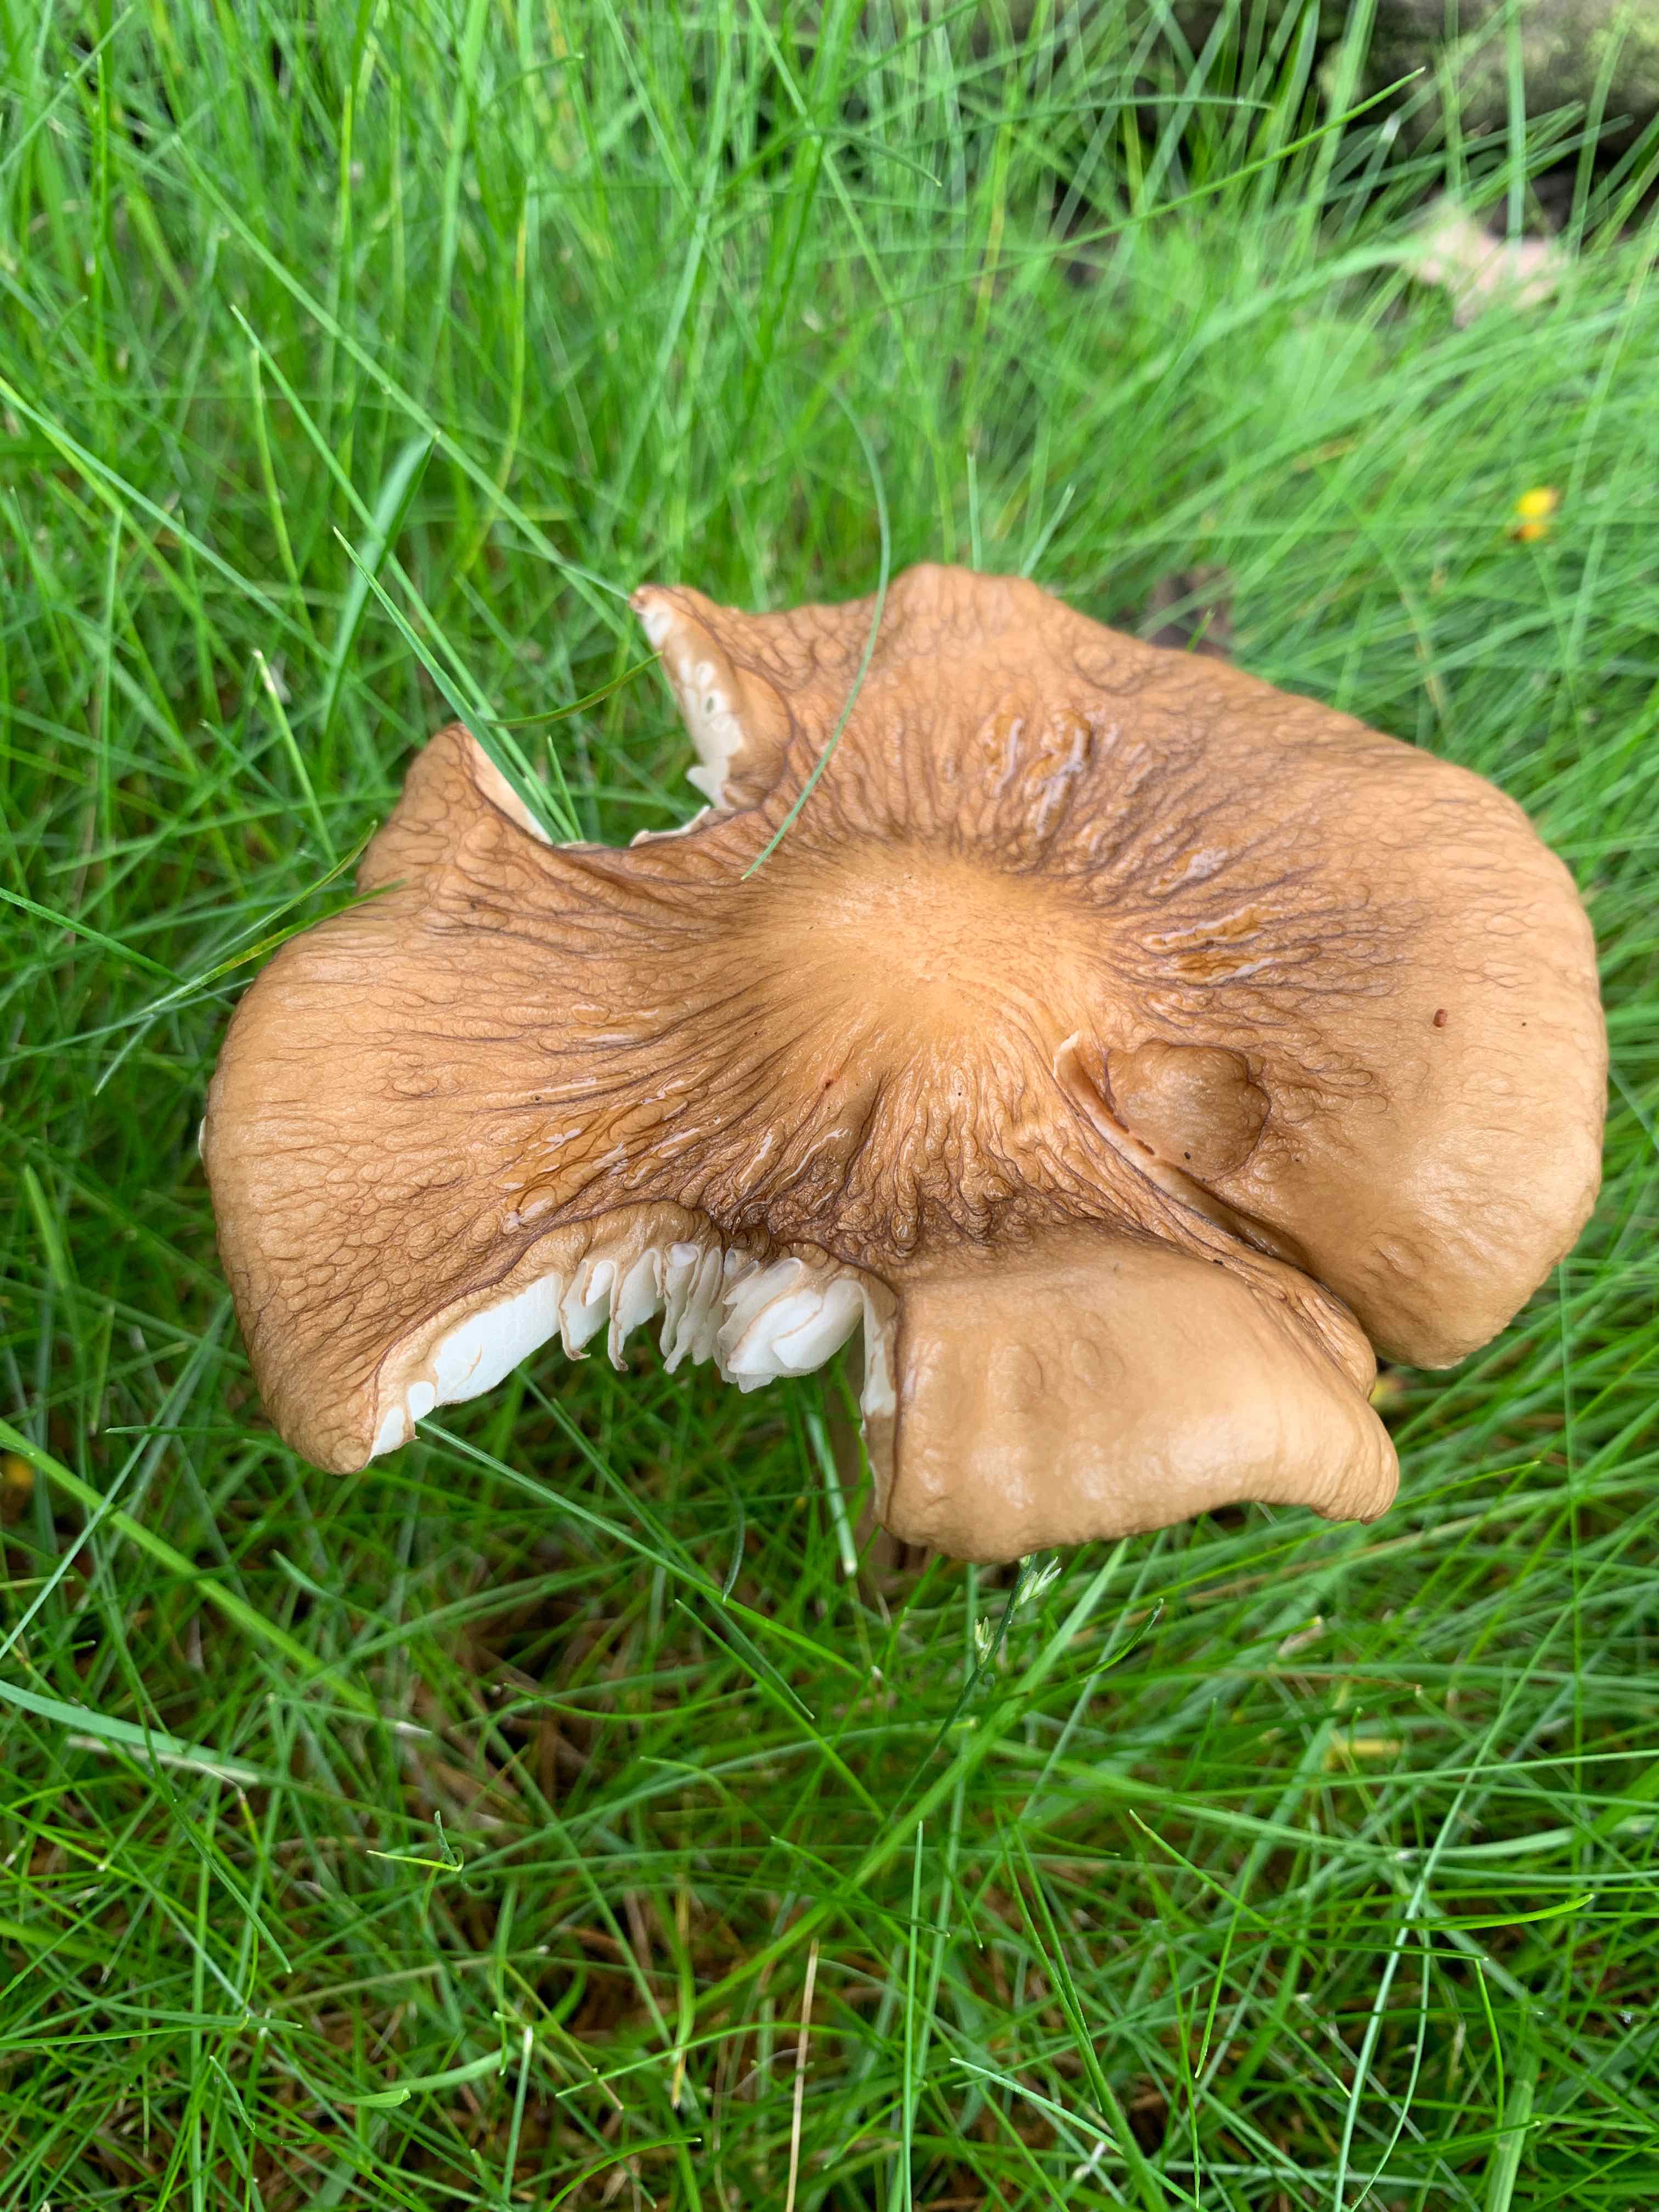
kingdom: Fungi
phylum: Basidiomycota
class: Agaricomycetes
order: Agaricales
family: Physalacriaceae
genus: Hymenopellis
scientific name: Hymenopellis radicata
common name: almindelig pælerodshat
